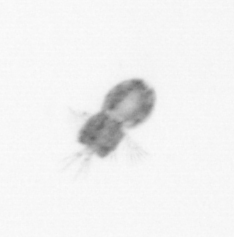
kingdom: Animalia
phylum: Arthropoda
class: Copepoda
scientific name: Copepoda
